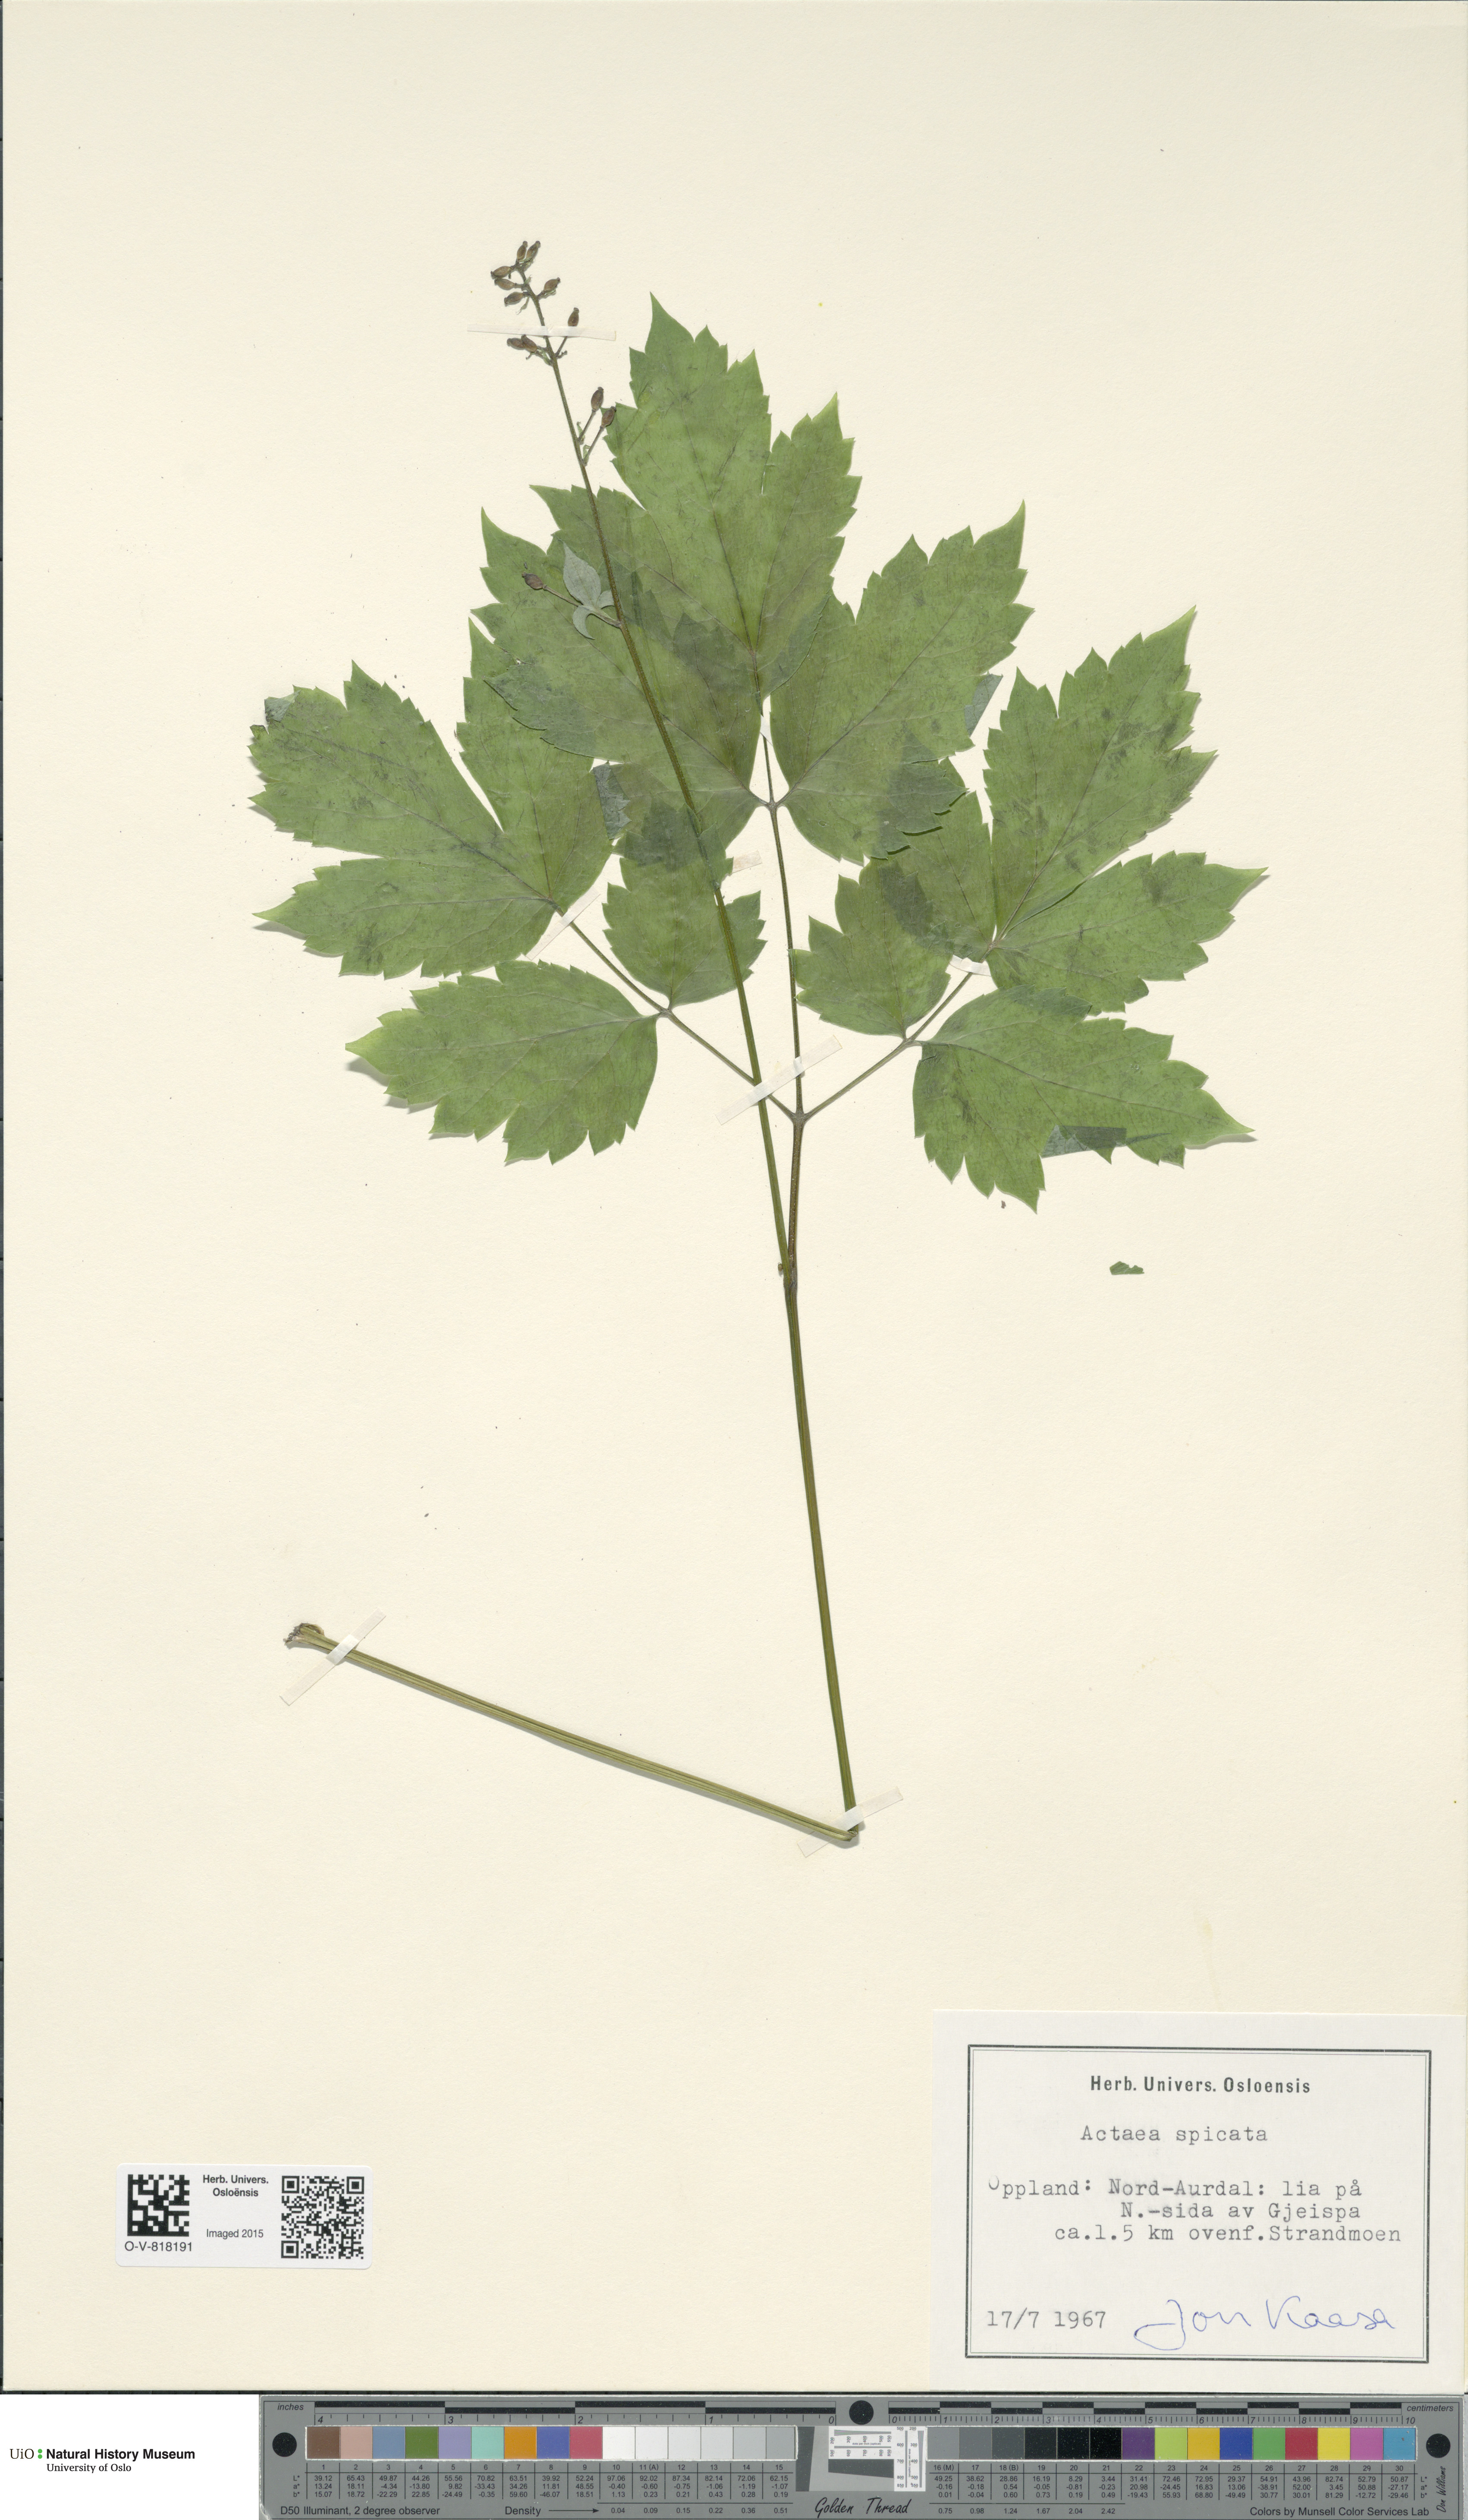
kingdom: Plantae
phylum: Tracheophyta
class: Magnoliopsida
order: Ranunculales
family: Ranunculaceae
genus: Actaea
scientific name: Actaea spicata
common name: Baneberry
